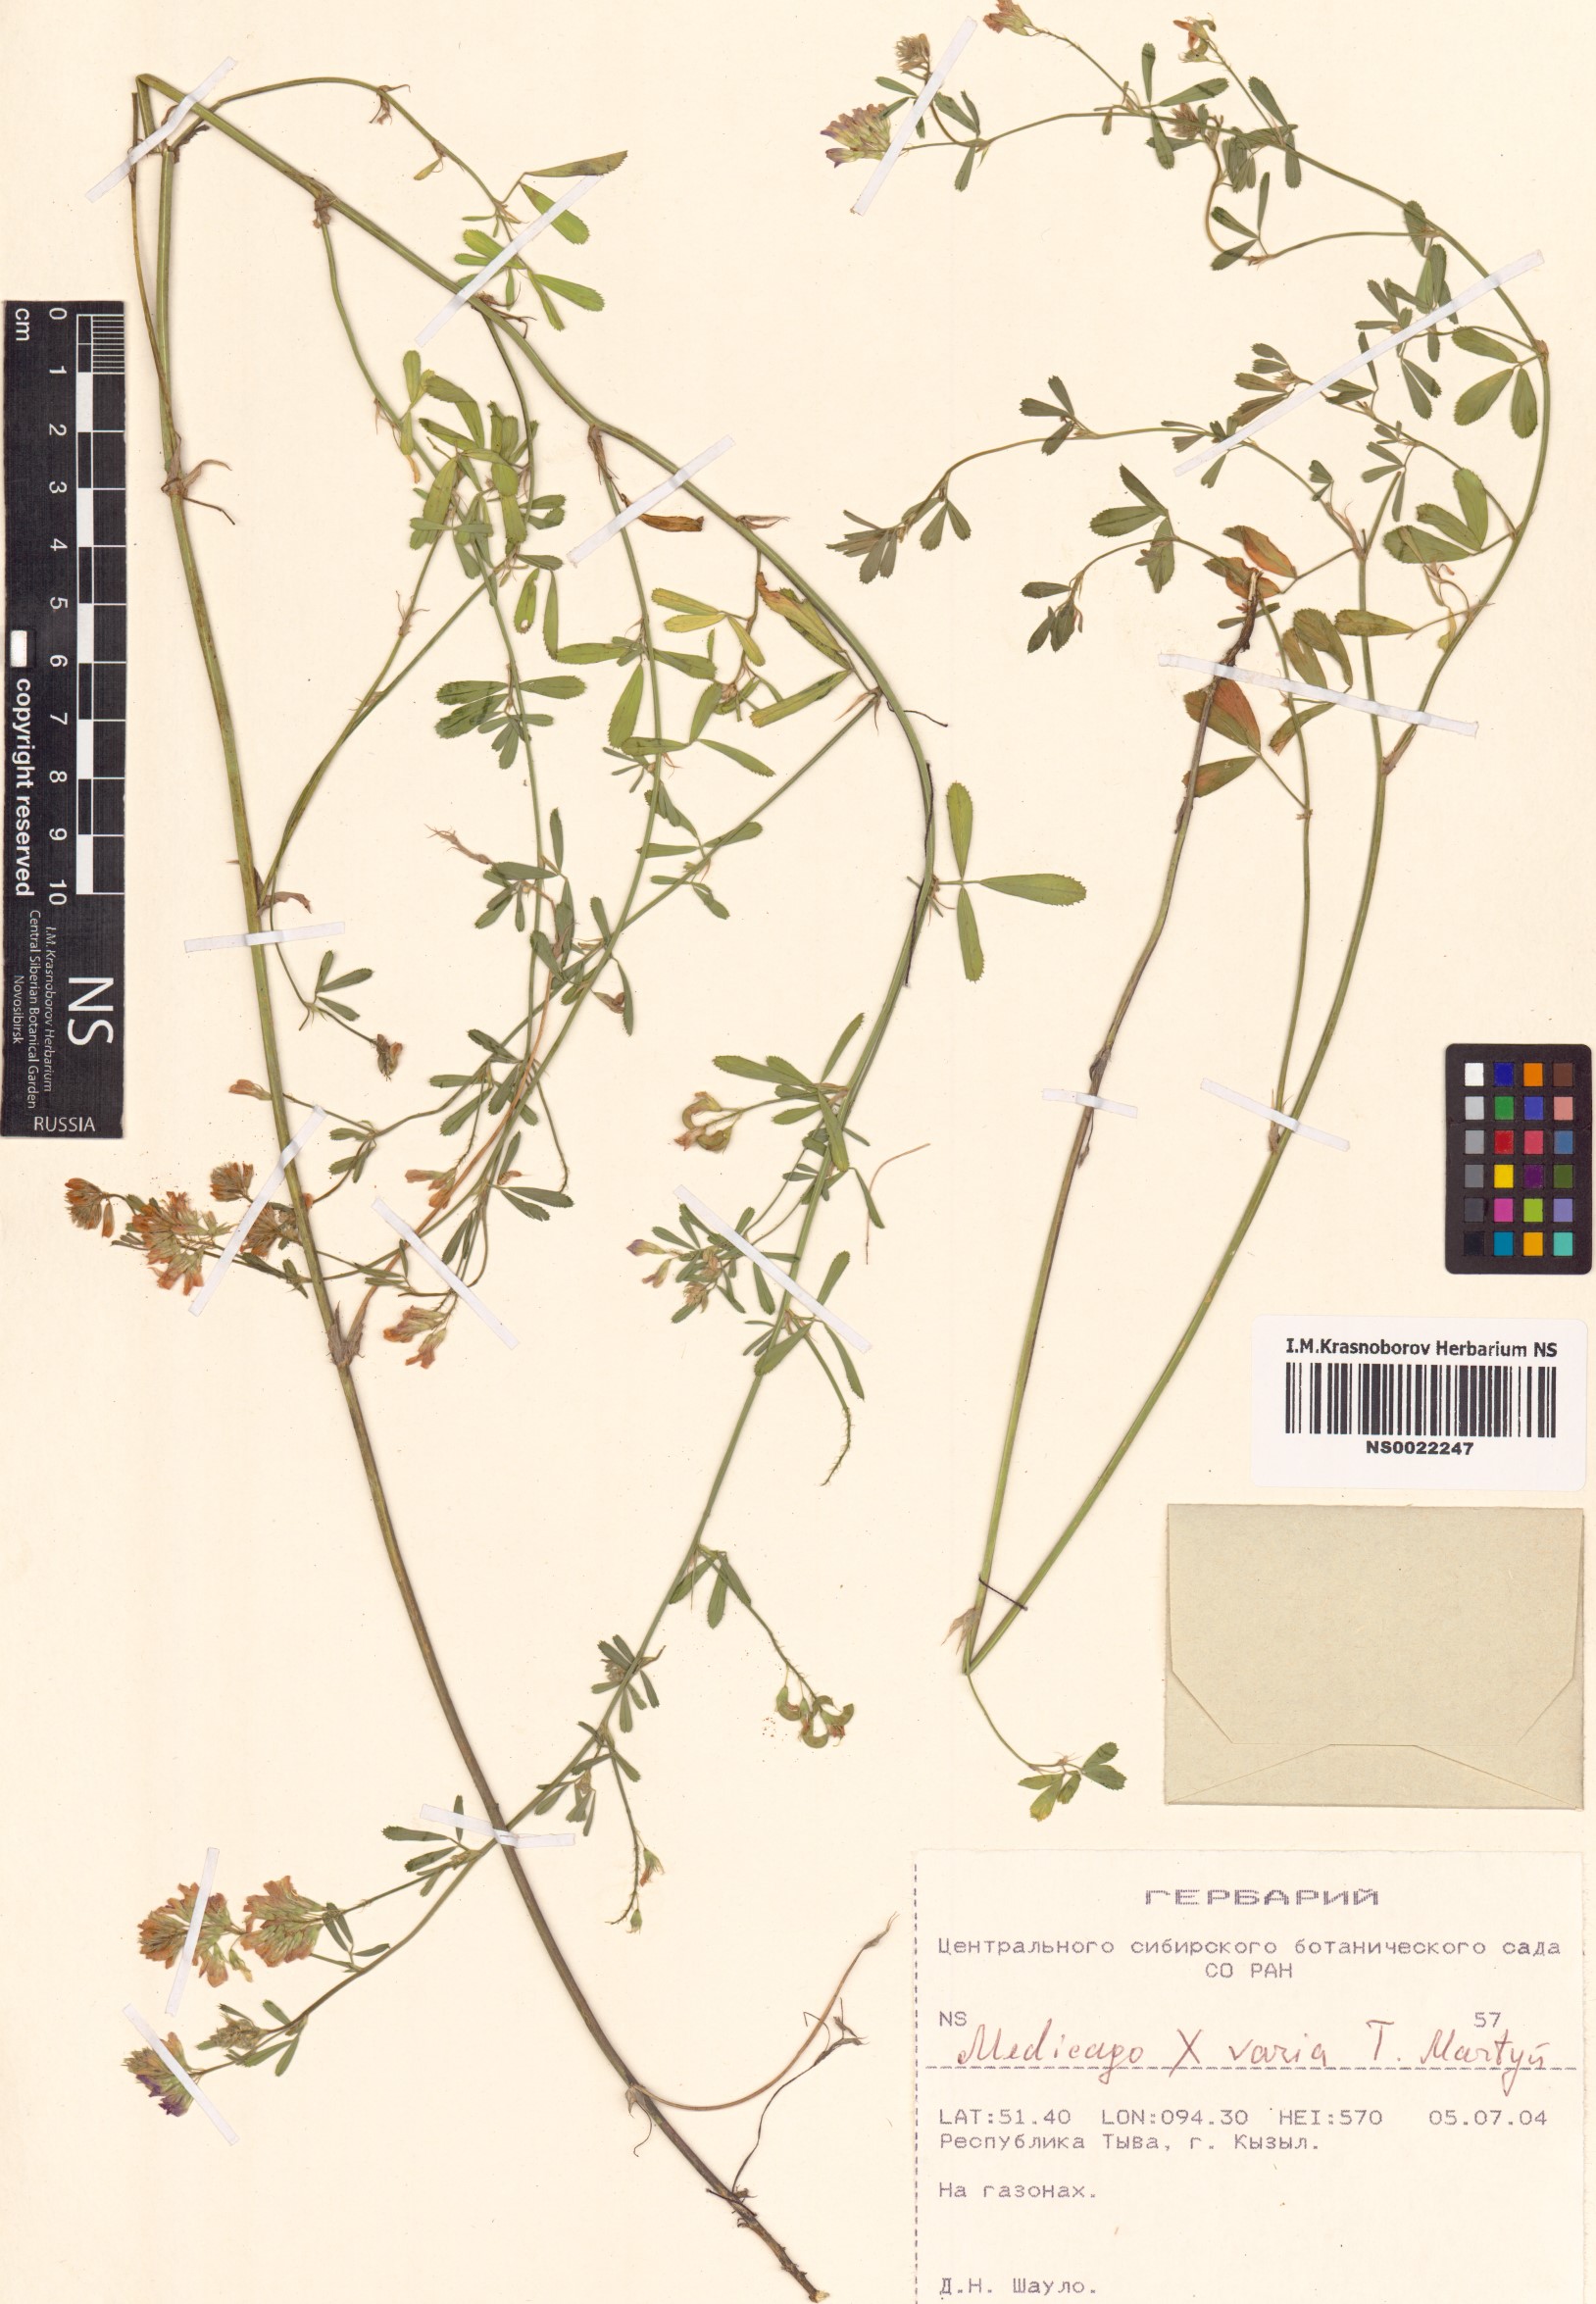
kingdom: Plantae
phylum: Tracheophyta
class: Magnoliopsida
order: Fabales
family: Fabaceae
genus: Medicago
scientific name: Medicago varia
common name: Sand lucerne
